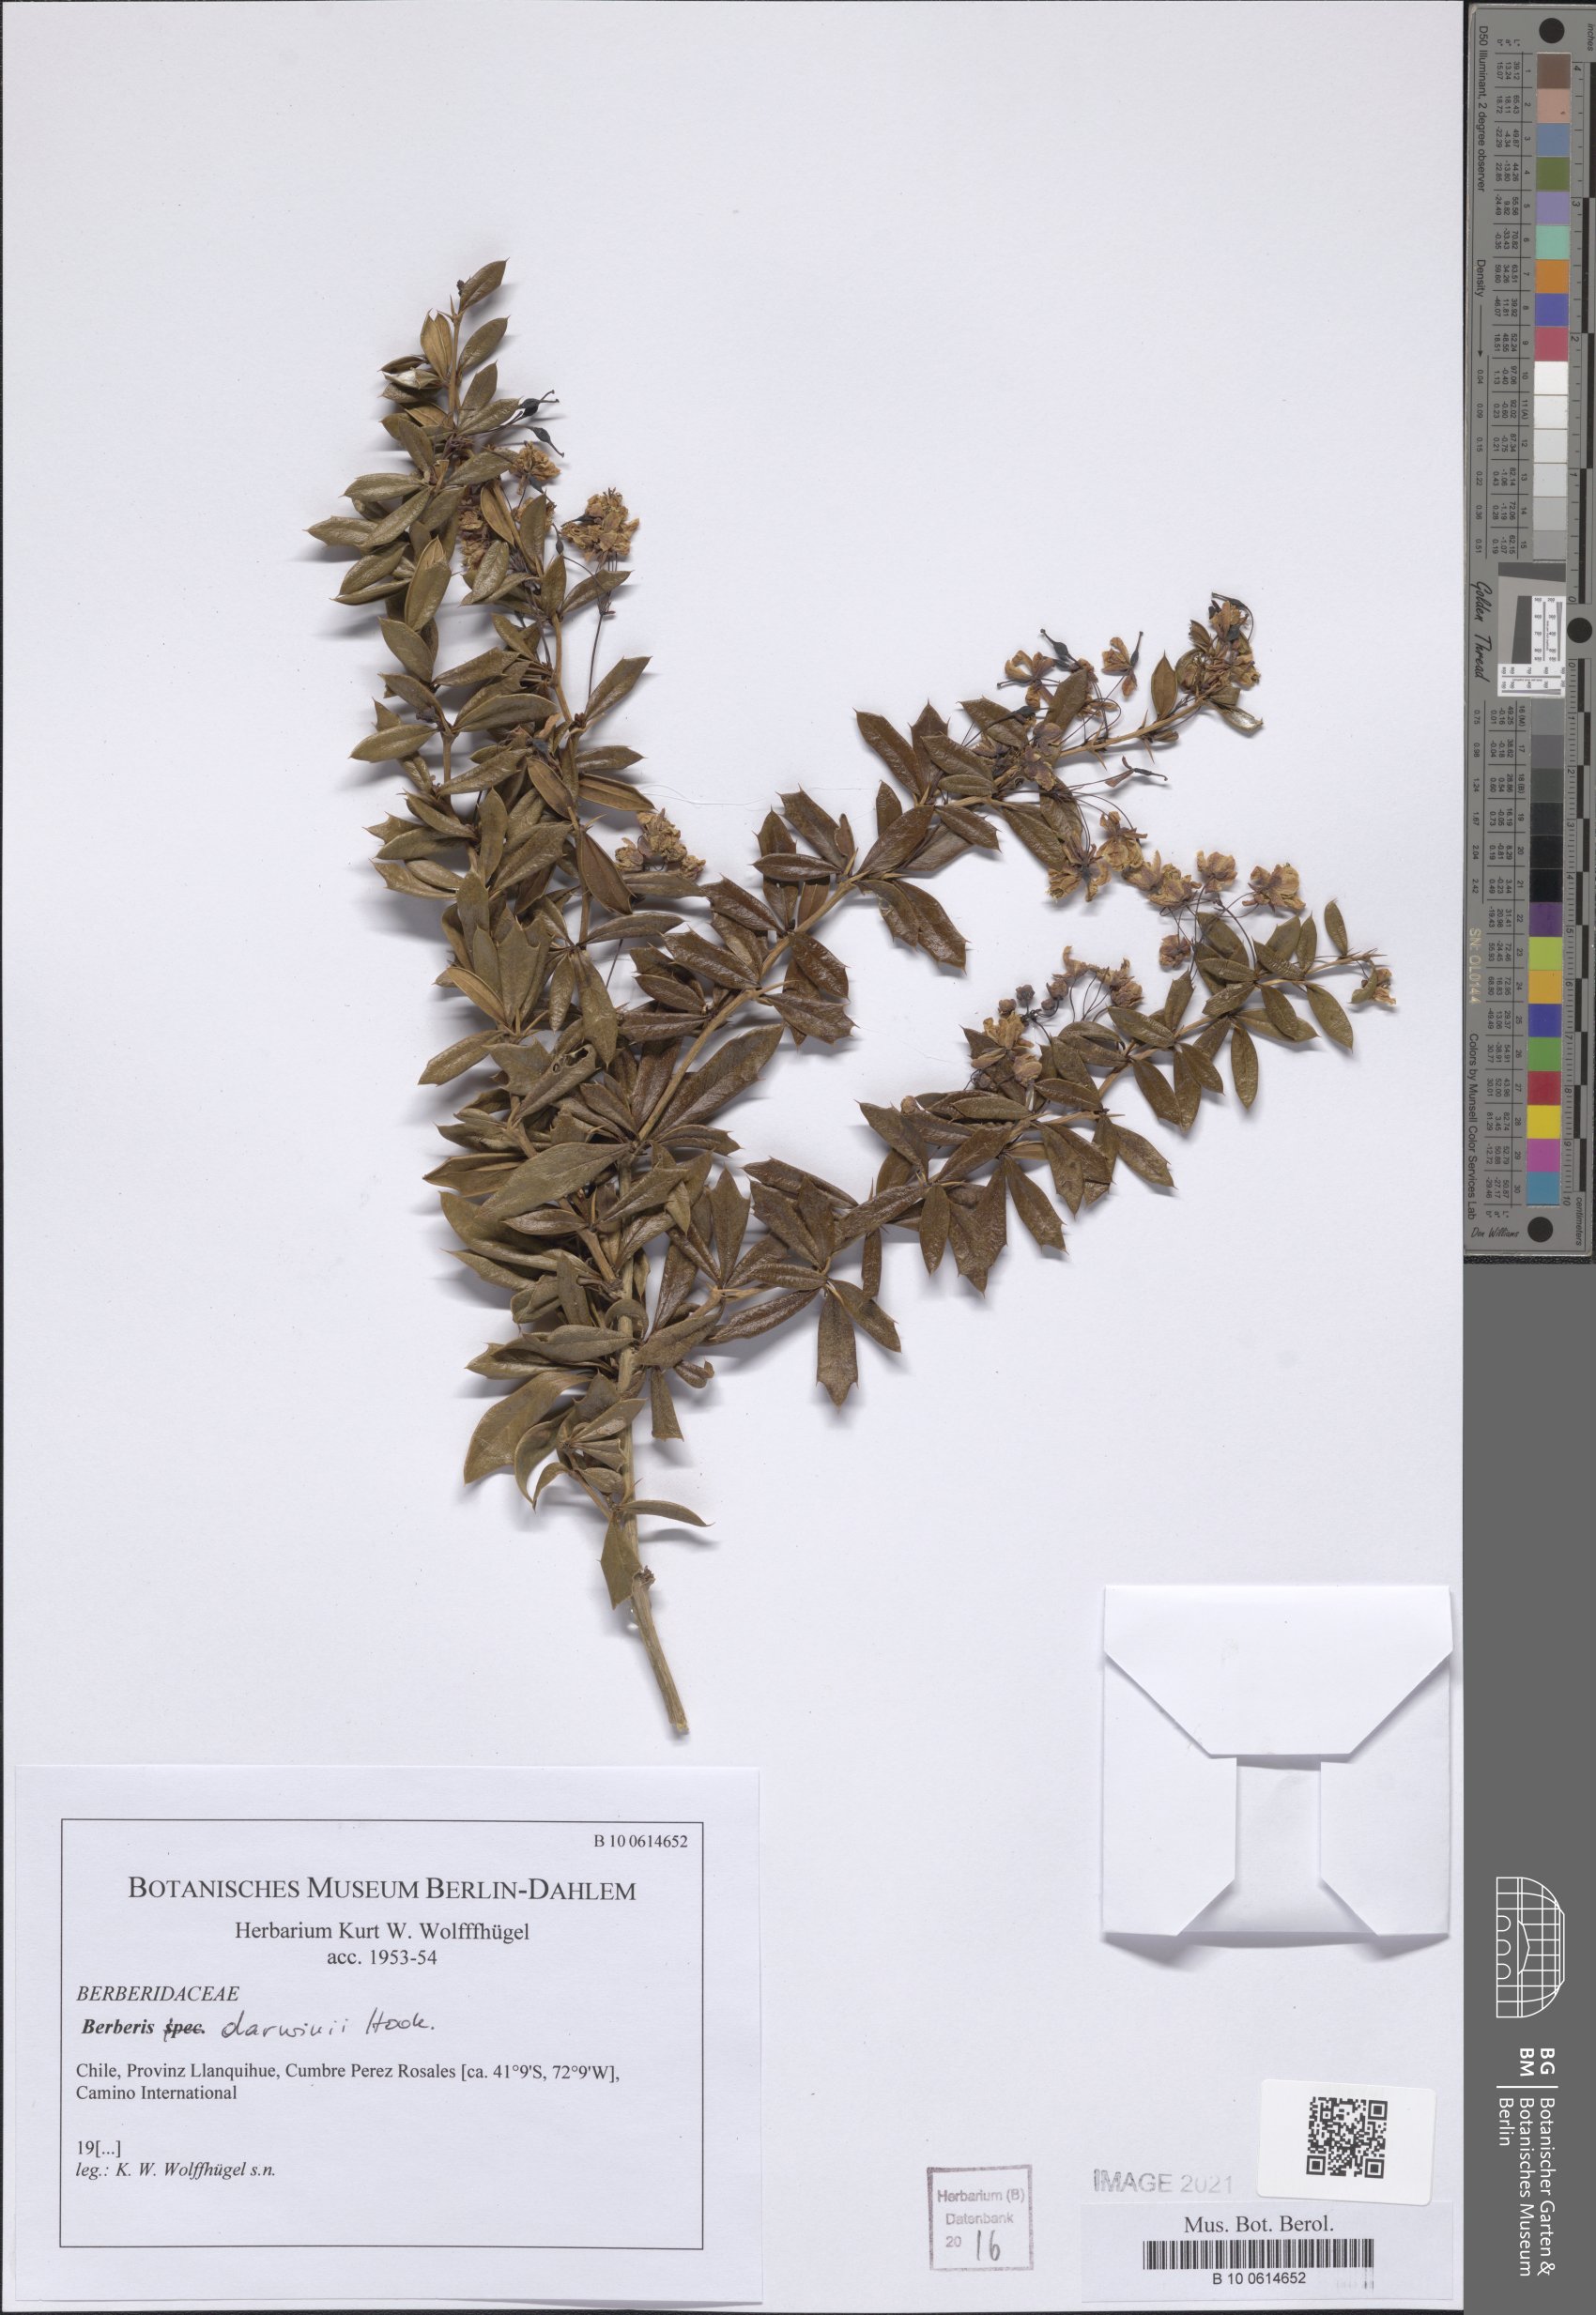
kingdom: Plantae
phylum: Tracheophyta
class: Magnoliopsida
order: Ranunculales
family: Berberidaceae
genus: Berberis
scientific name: Berberis darwinii
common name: Darwin's barberry
